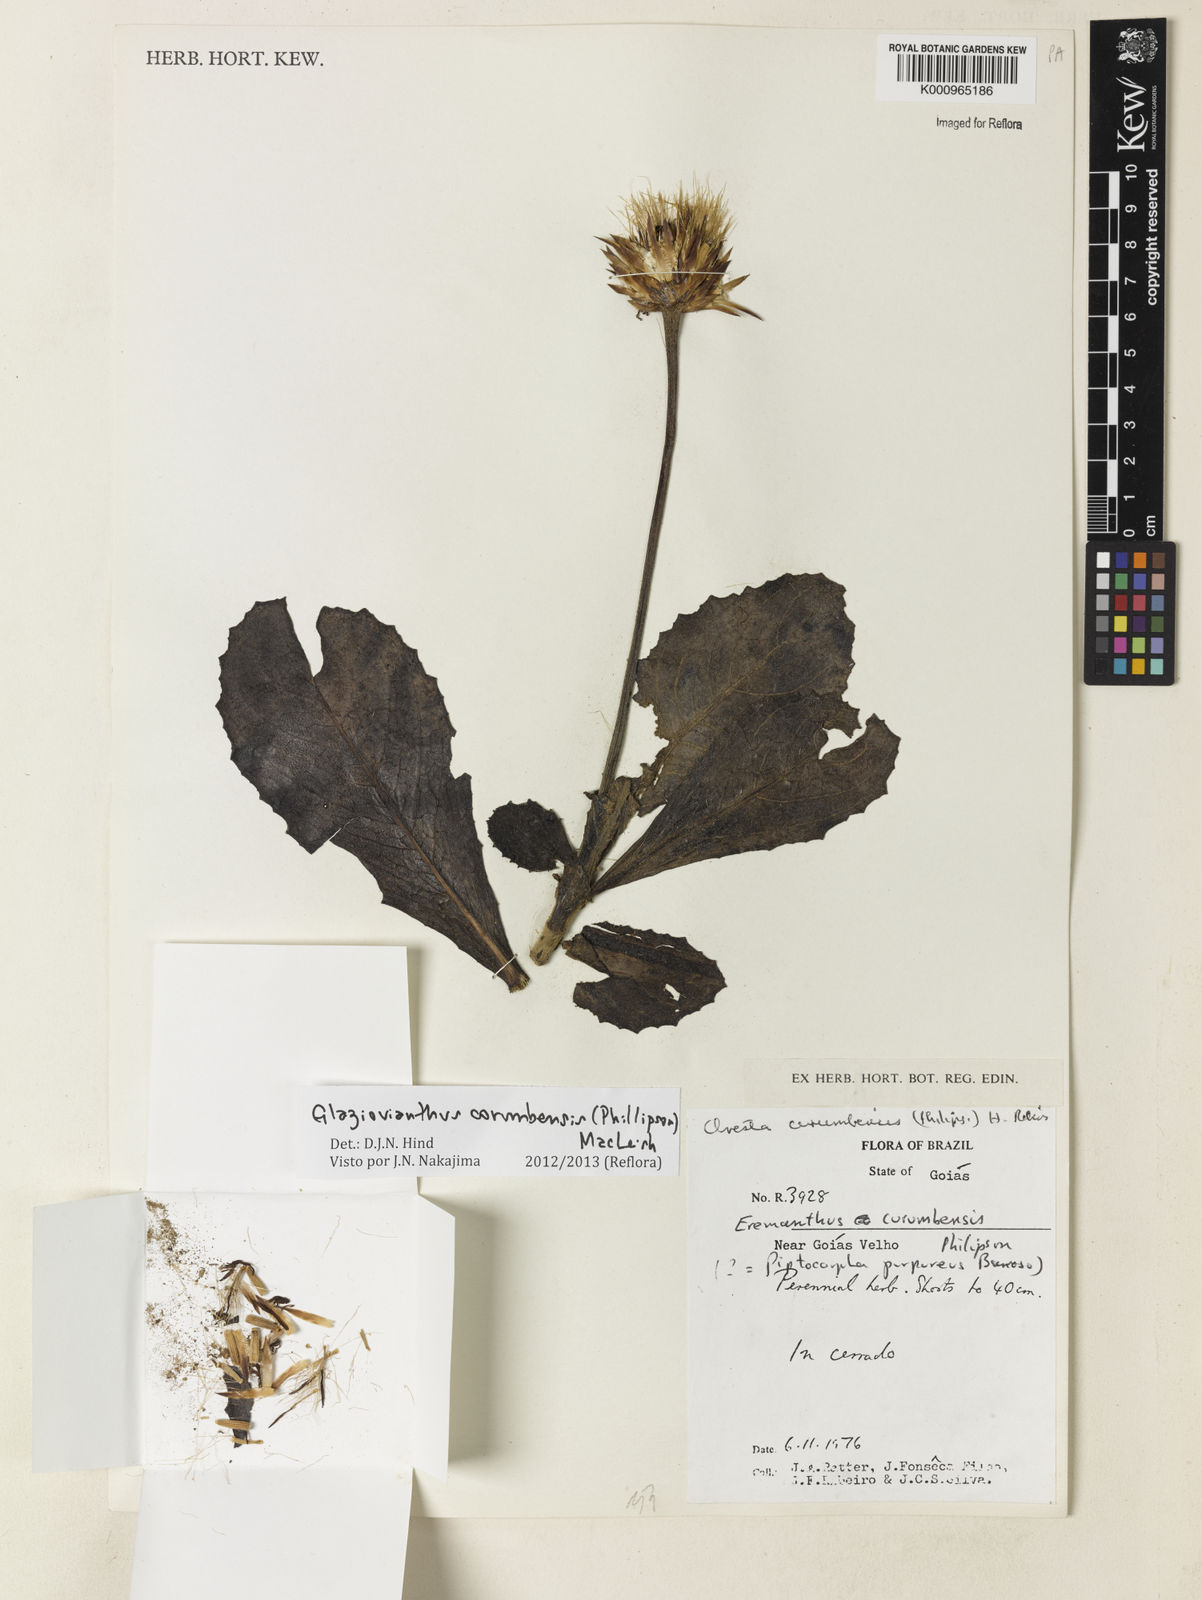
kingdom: Plantae
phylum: Tracheophyta
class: Magnoliopsida
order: Asterales
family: Asteraceae
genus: Chresta
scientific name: Chresta curumbensis
